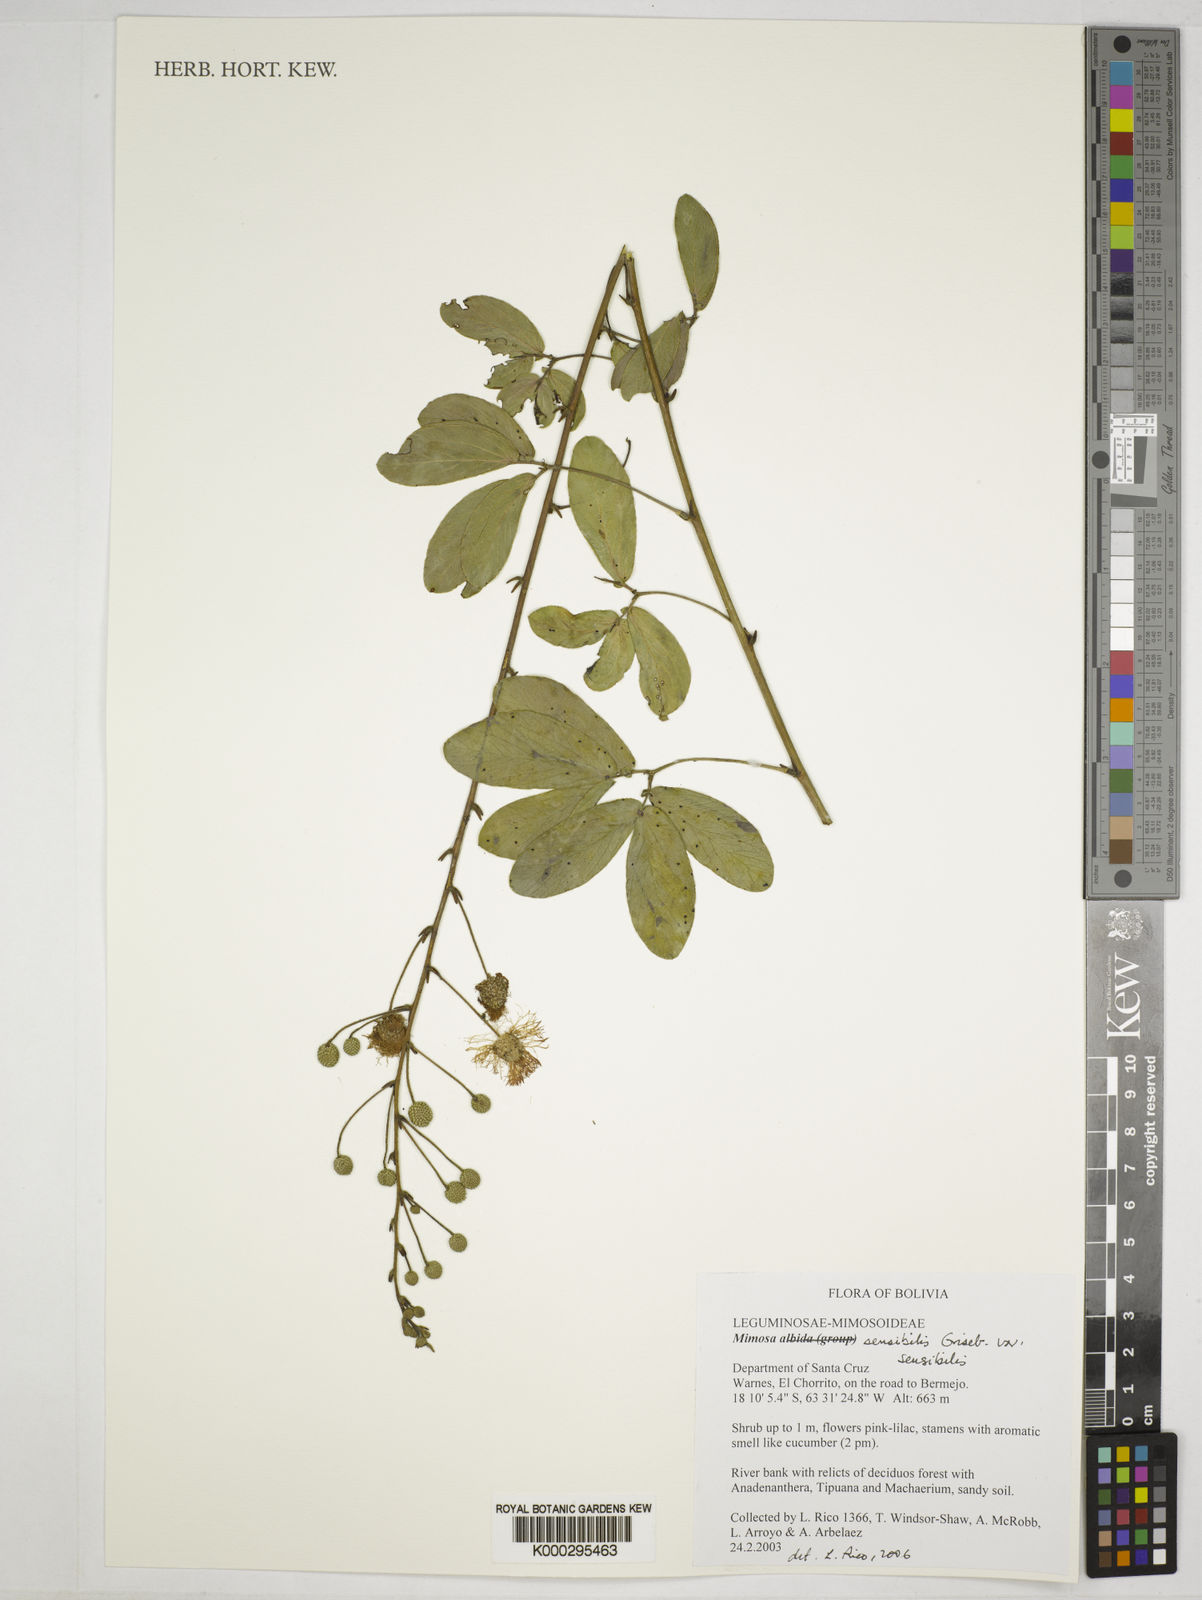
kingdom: Plantae
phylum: Tracheophyta
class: Magnoliopsida
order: Fabales
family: Fabaceae
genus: Mimosa
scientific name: Mimosa
